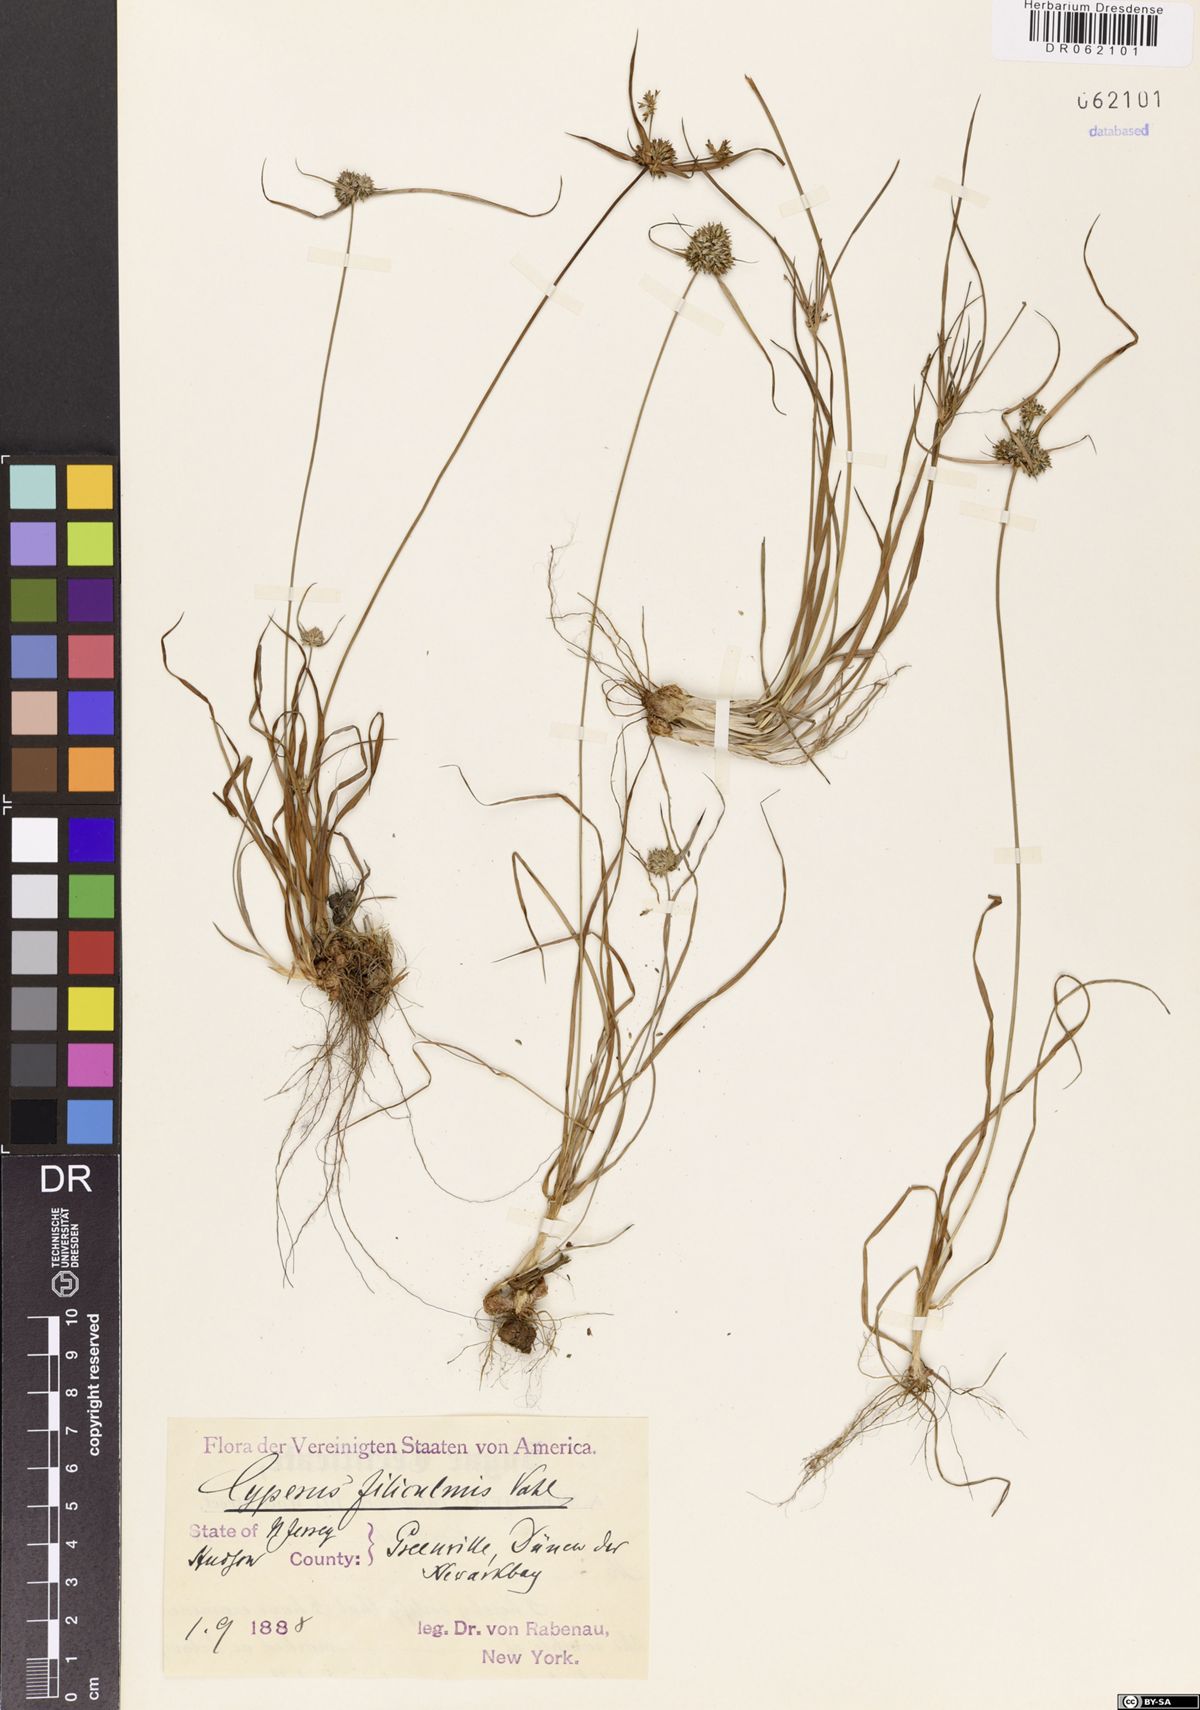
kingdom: Plantae
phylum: Tracheophyta
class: Liliopsida
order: Poales
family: Cyperaceae
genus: Cyperus
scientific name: Cyperus filiculmis
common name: Slender sand sedge
